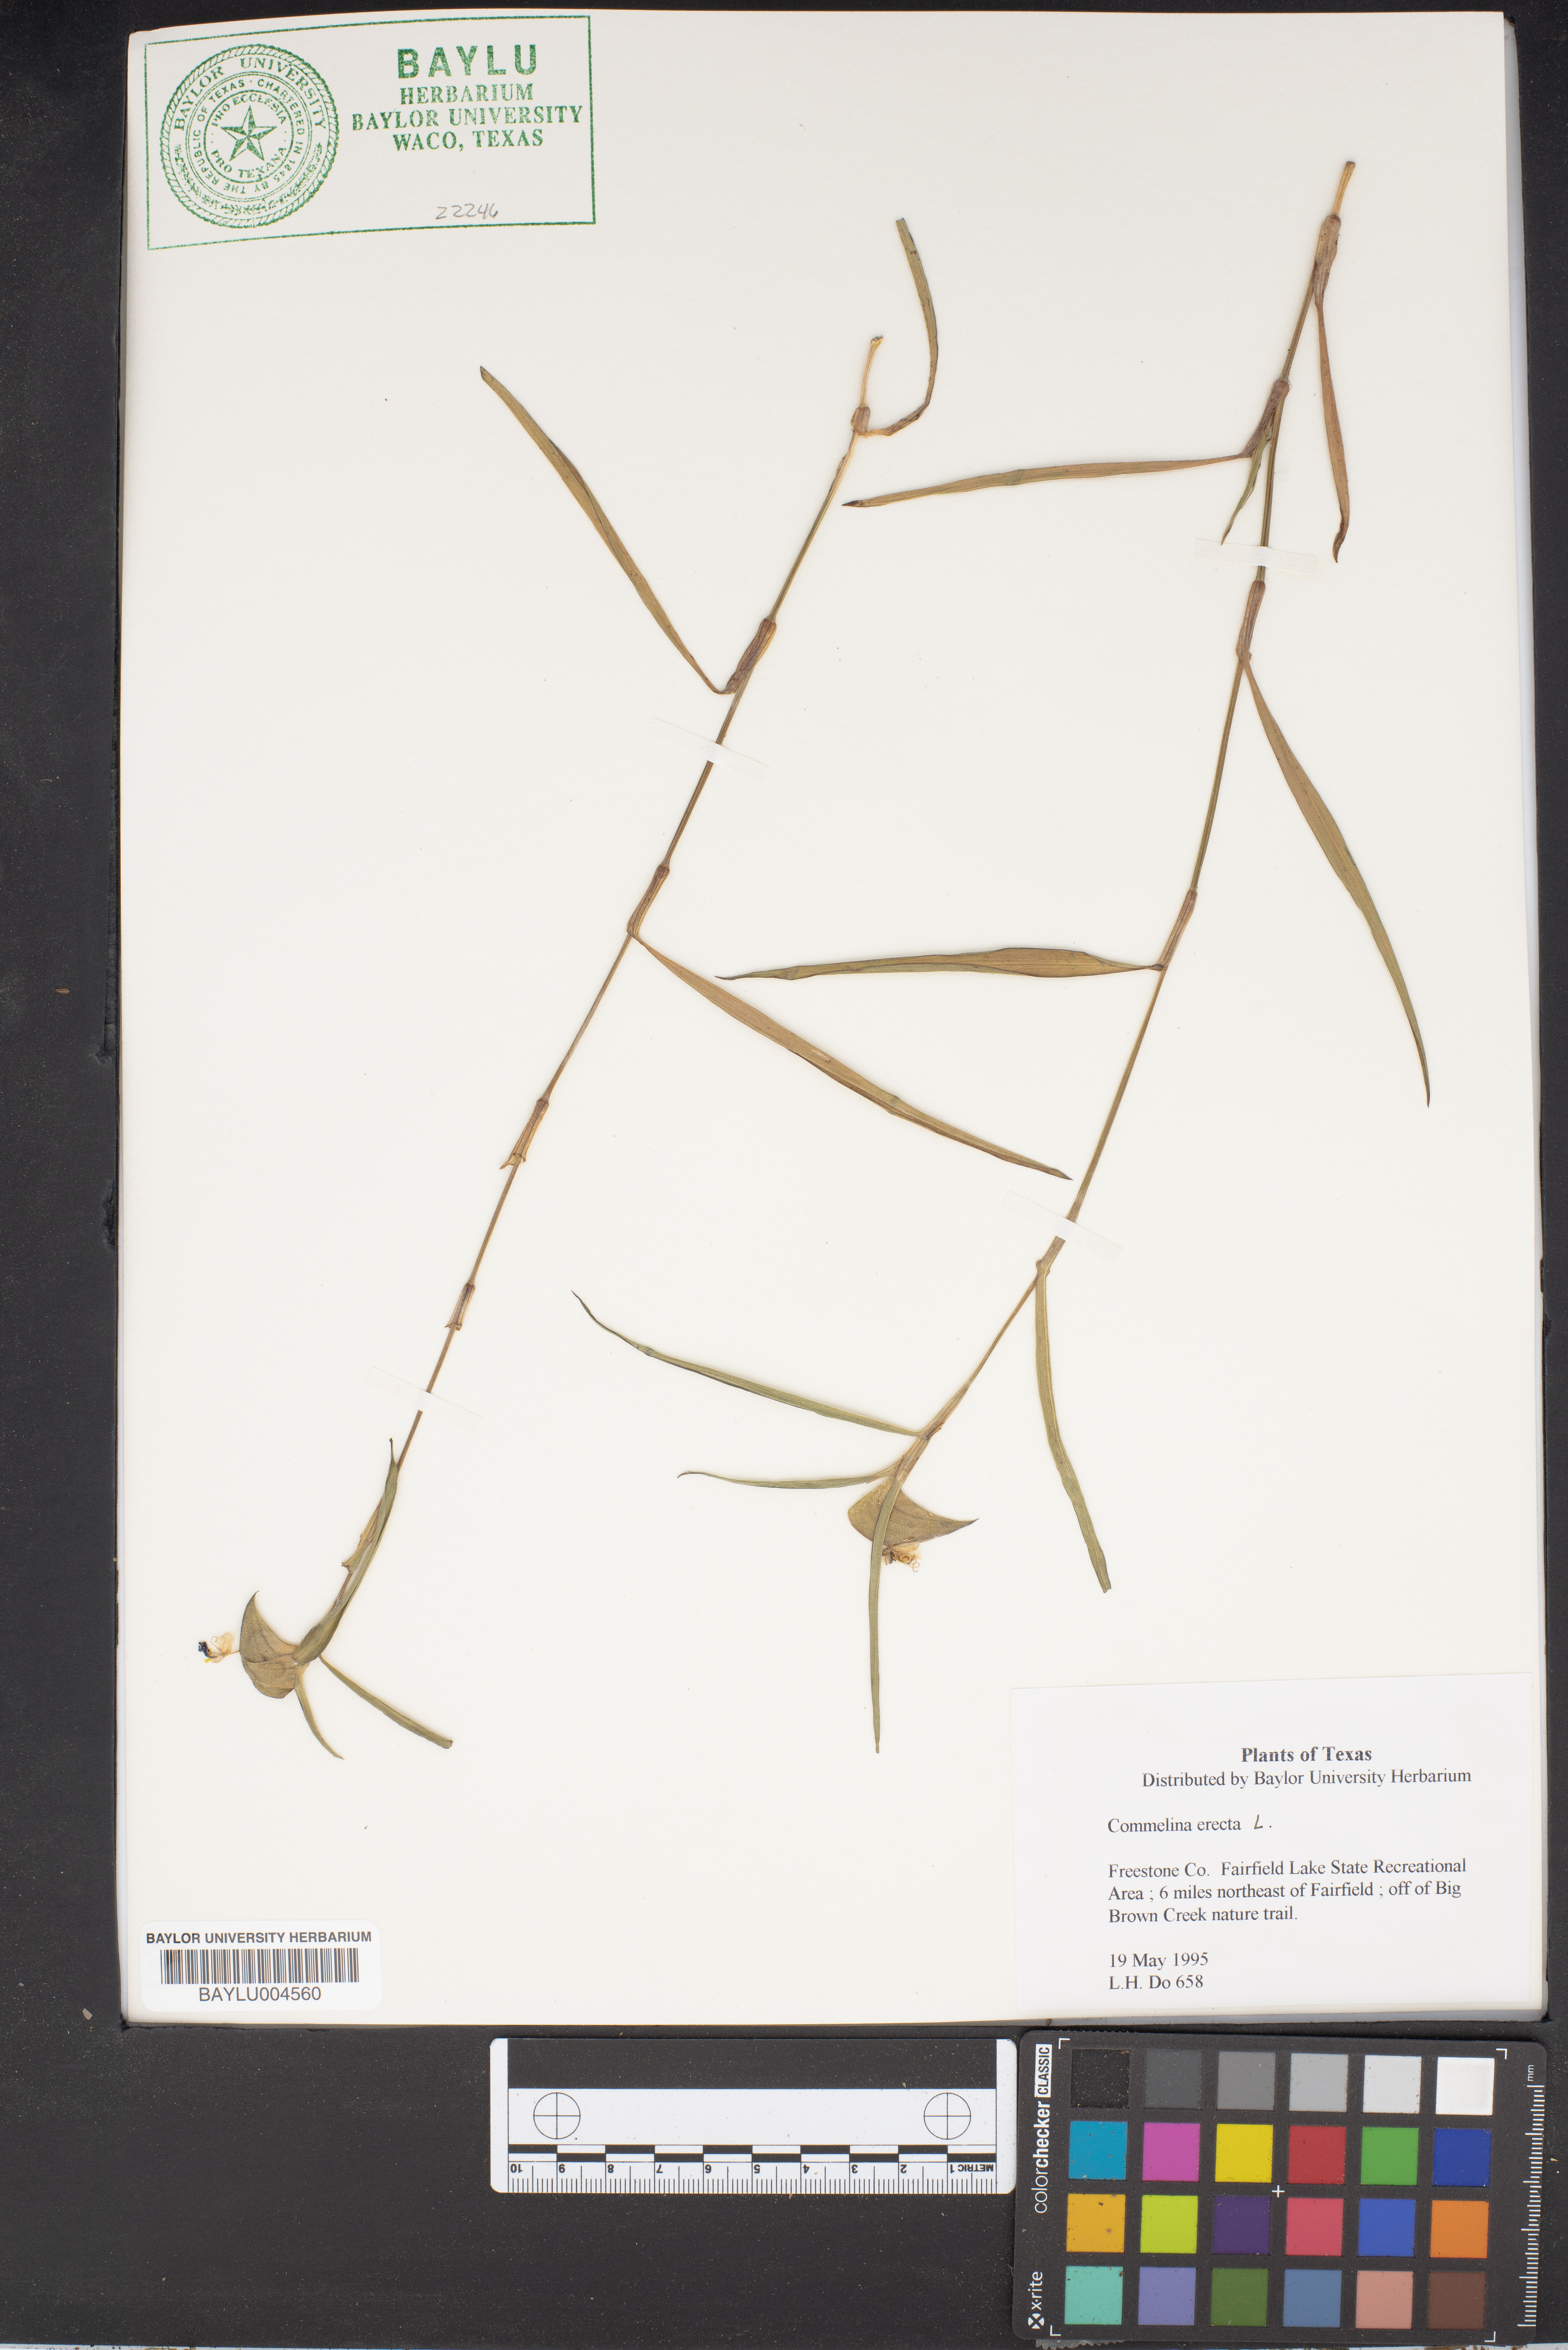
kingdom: Plantae
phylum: Tracheophyta
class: Liliopsida
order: Commelinales
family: Commelinaceae
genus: Commelina
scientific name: Commelina erecta
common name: Blousel blommetjie
